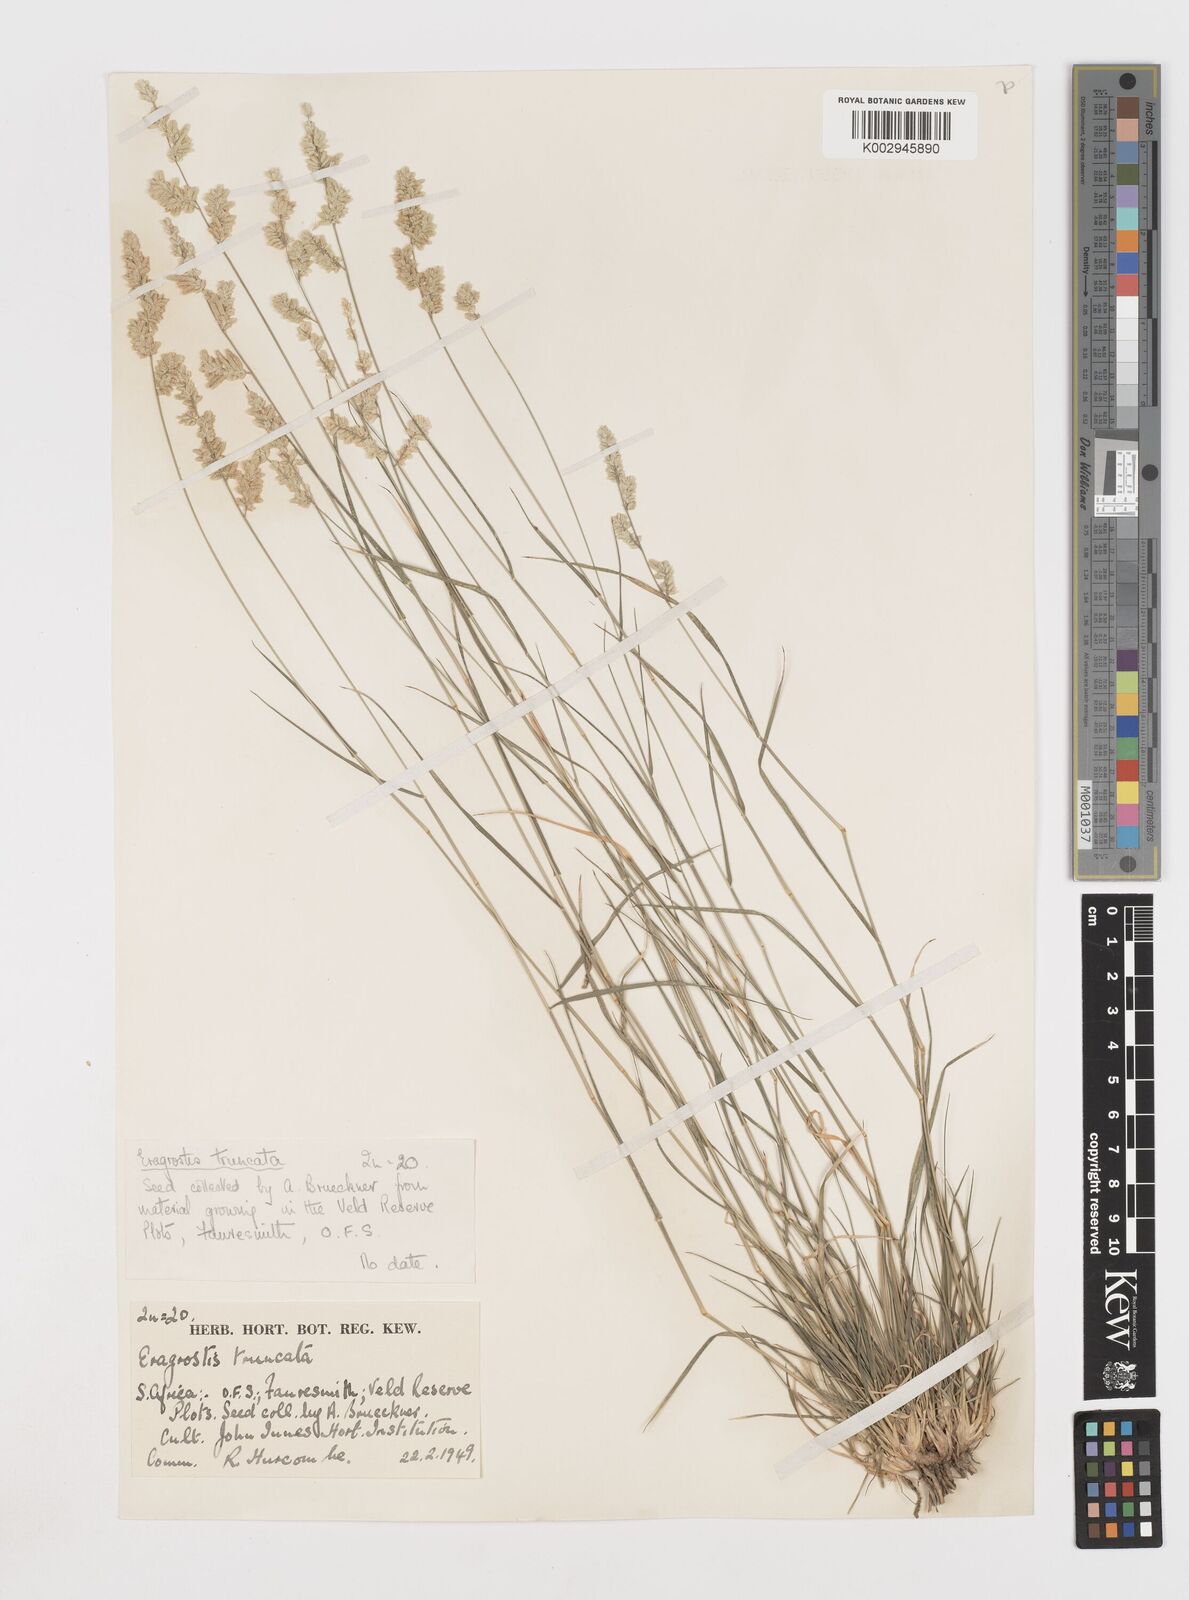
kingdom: Plantae
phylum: Tracheophyta
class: Liliopsida
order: Poales
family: Poaceae
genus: Eragrostis
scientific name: Eragrostis truncata
